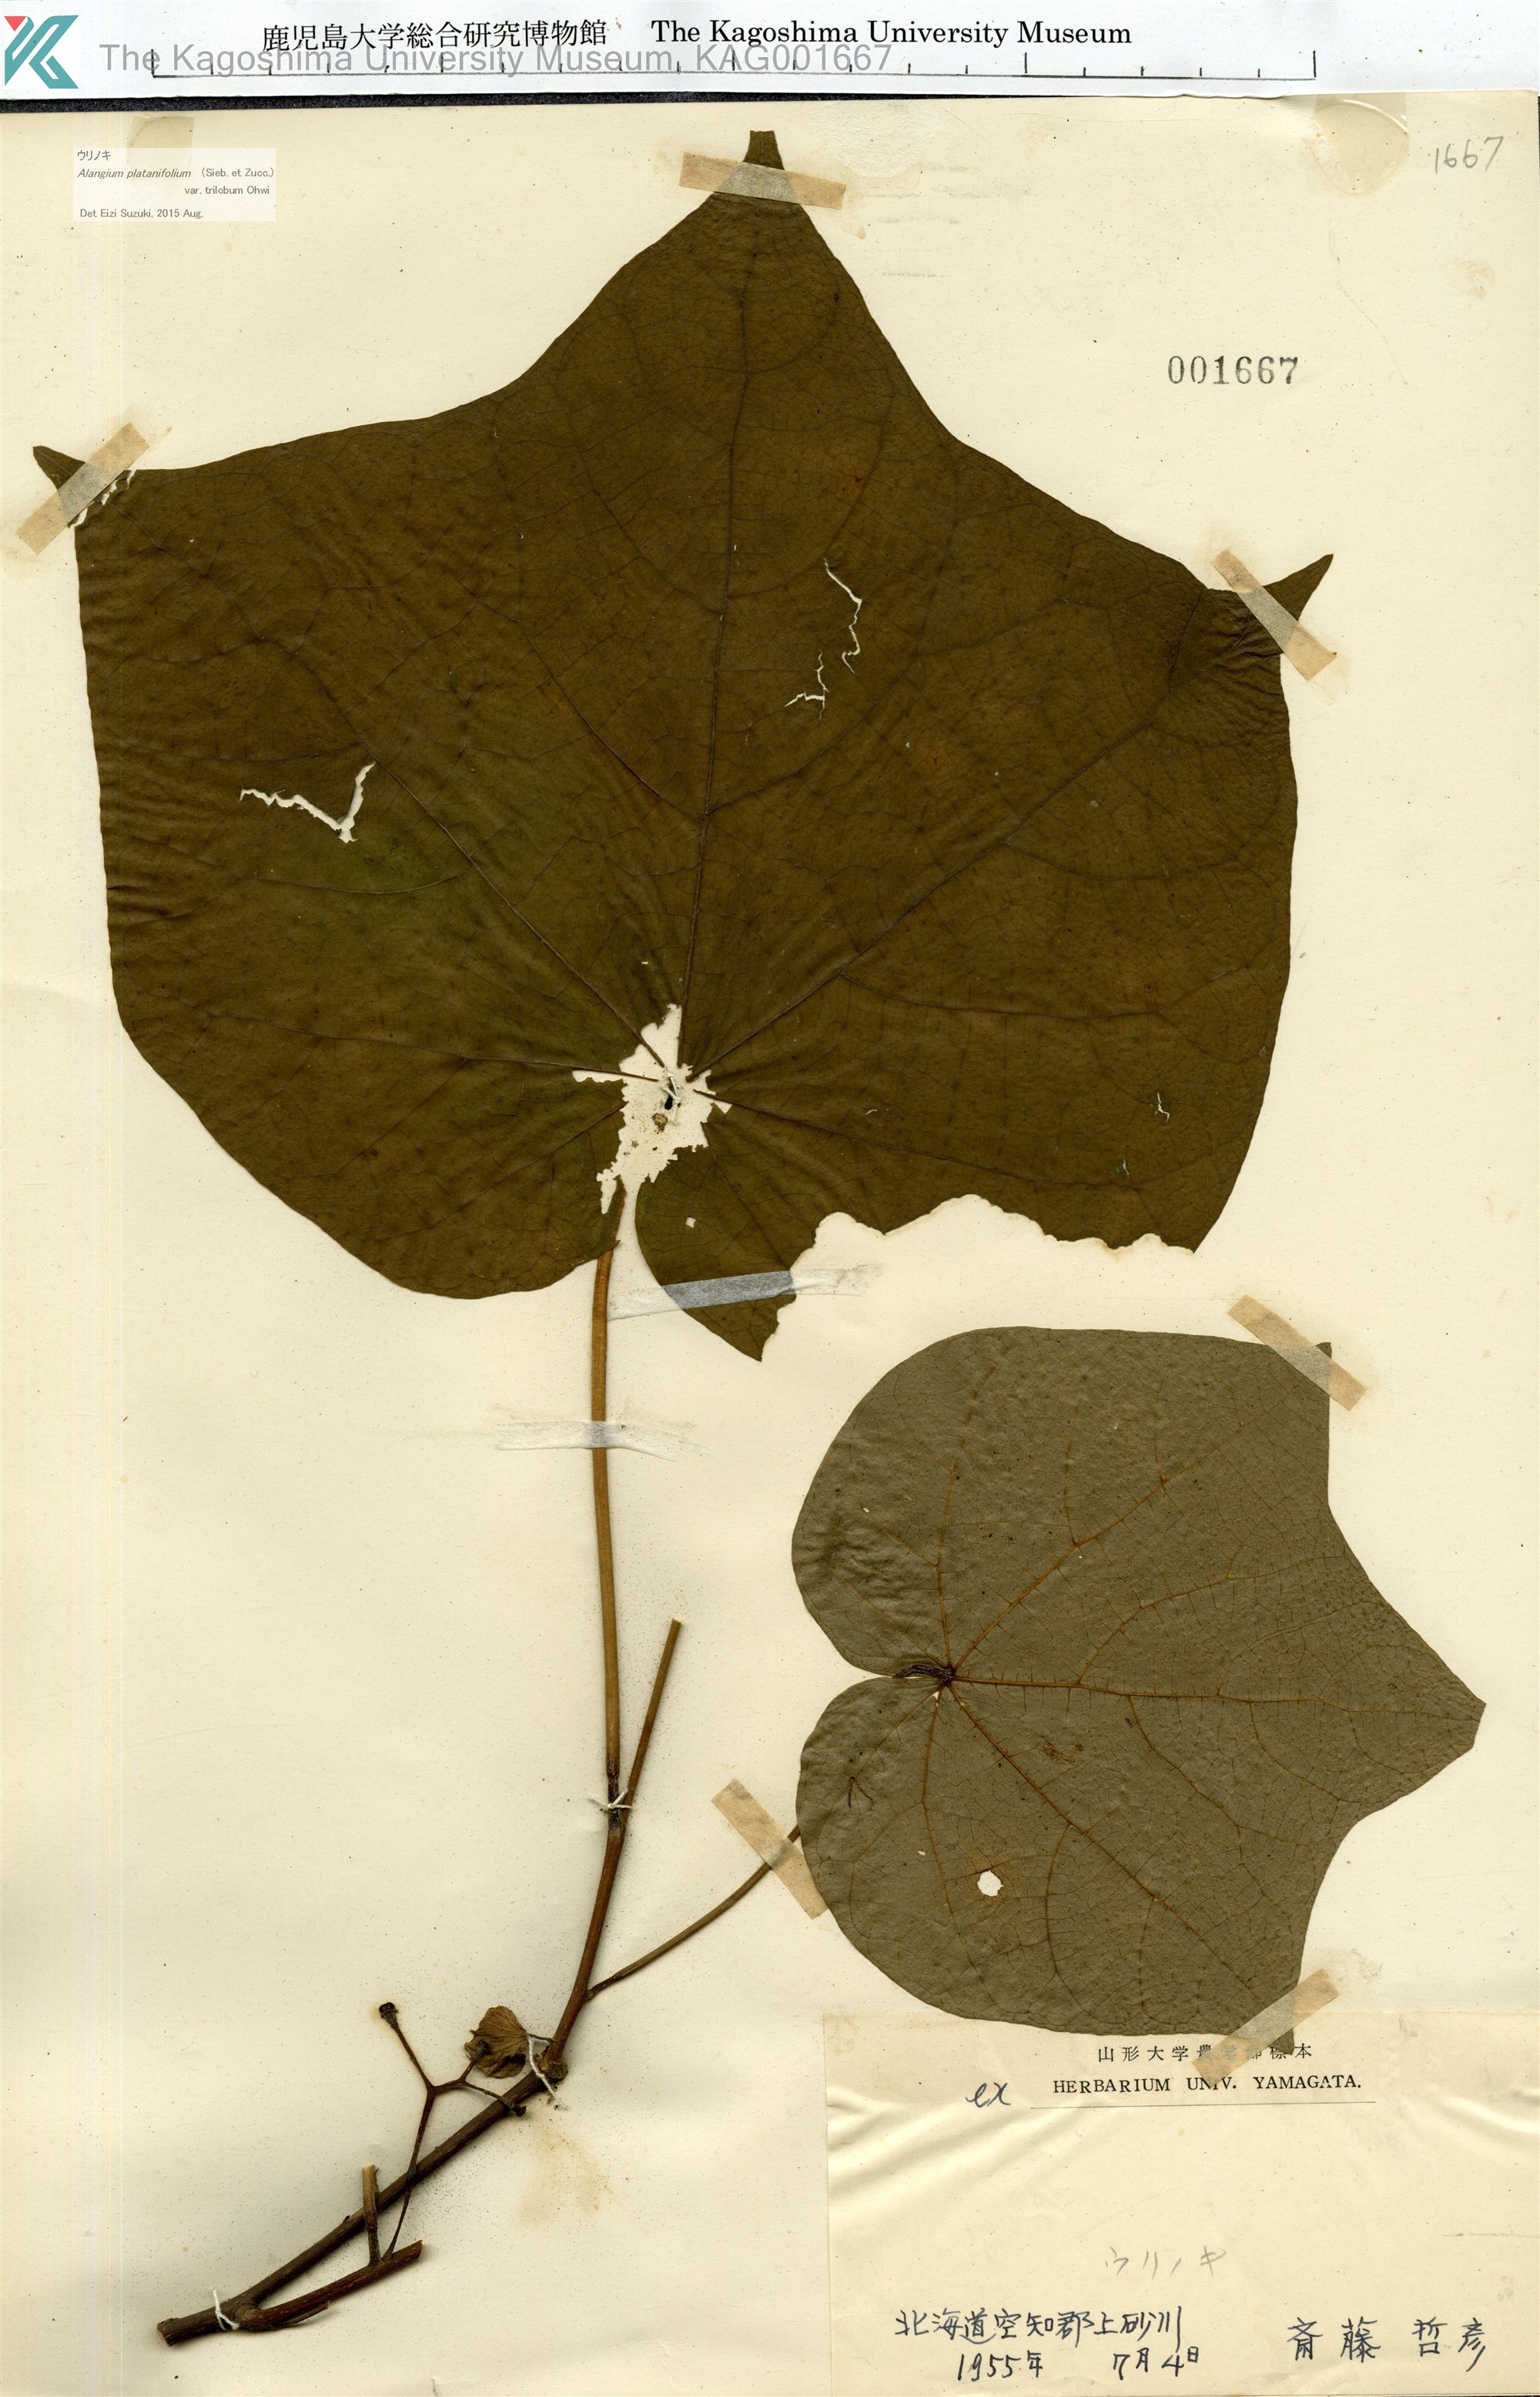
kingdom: Plantae
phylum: Tracheophyta
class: Magnoliopsida
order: Cornales
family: Cornaceae
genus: Alangium
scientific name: Alangium platanifolium
